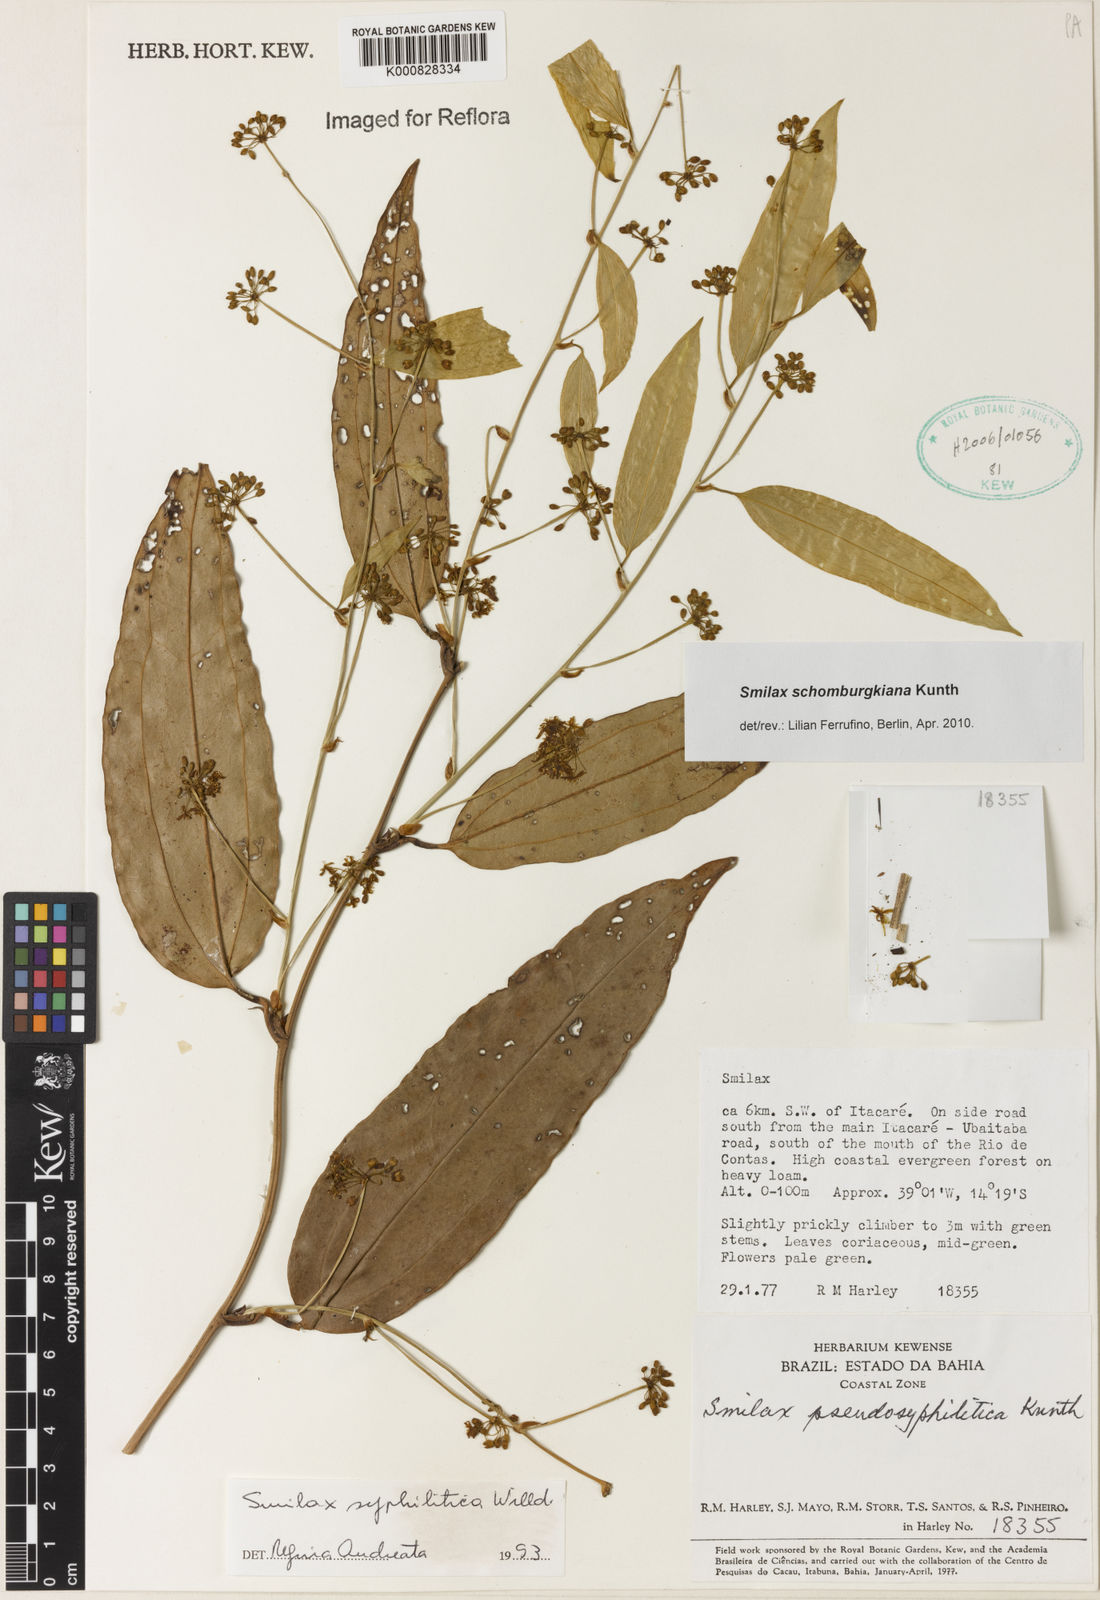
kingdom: Plantae
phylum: Tracheophyta
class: Liliopsida
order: Liliales
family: Smilacaceae
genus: Smilax
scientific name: Smilax schomburgkiana
